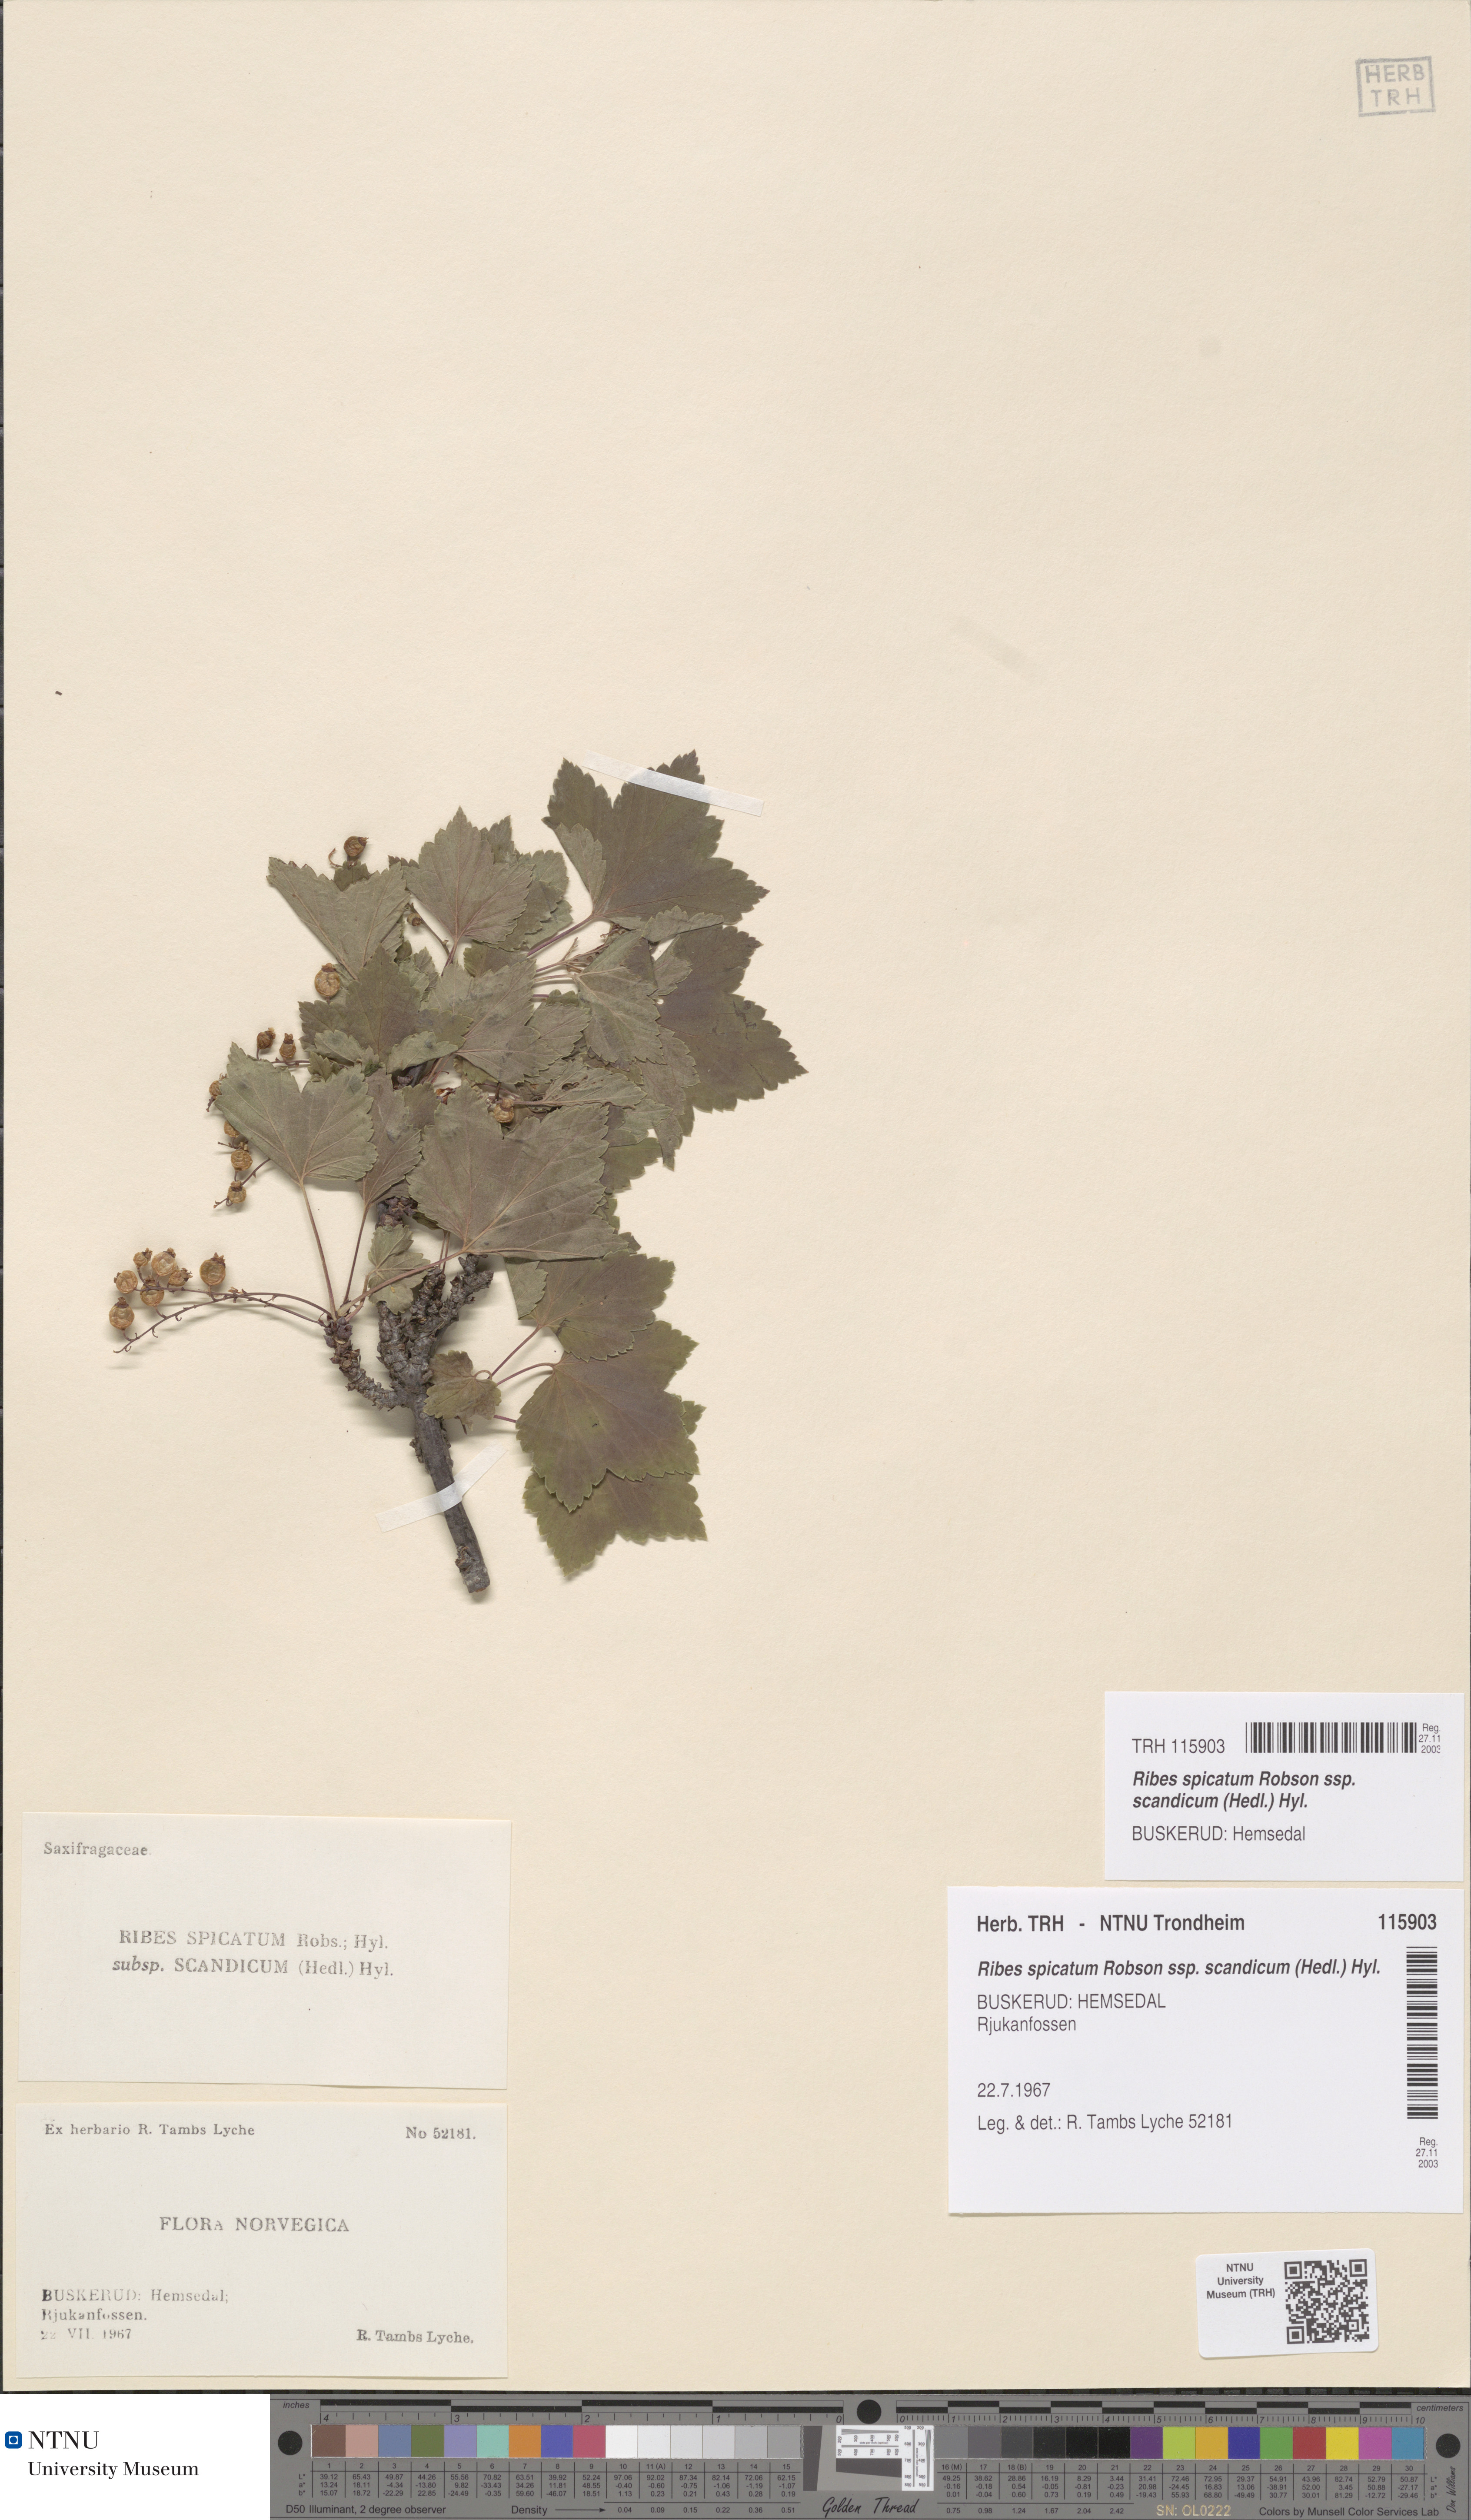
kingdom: Plantae
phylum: Tracheophyta
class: Magnoliopsida
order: Saxifragales
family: Grossulariaceae
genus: Ribes
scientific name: Ribes spicatum
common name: Downy currant
